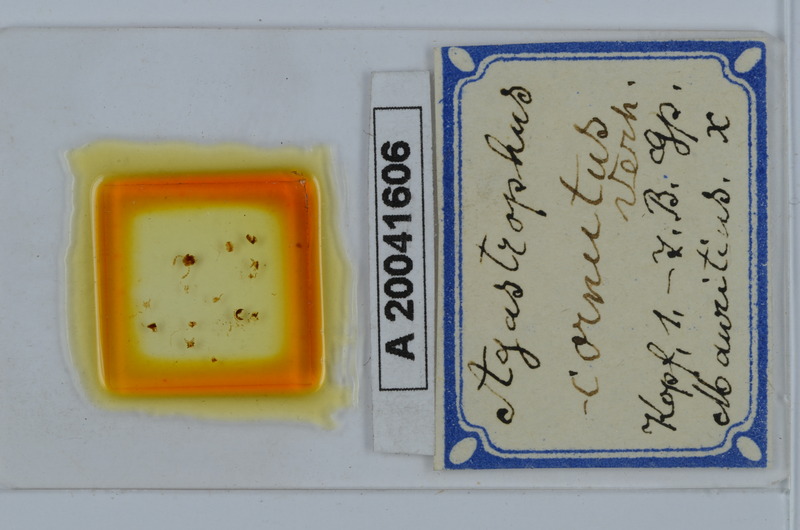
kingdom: Animalia
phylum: Arthropoda
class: Diplopoda
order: Spirostreptida
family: Cambalopsidae
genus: Hypocambala
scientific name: Hypocambala cornuta
